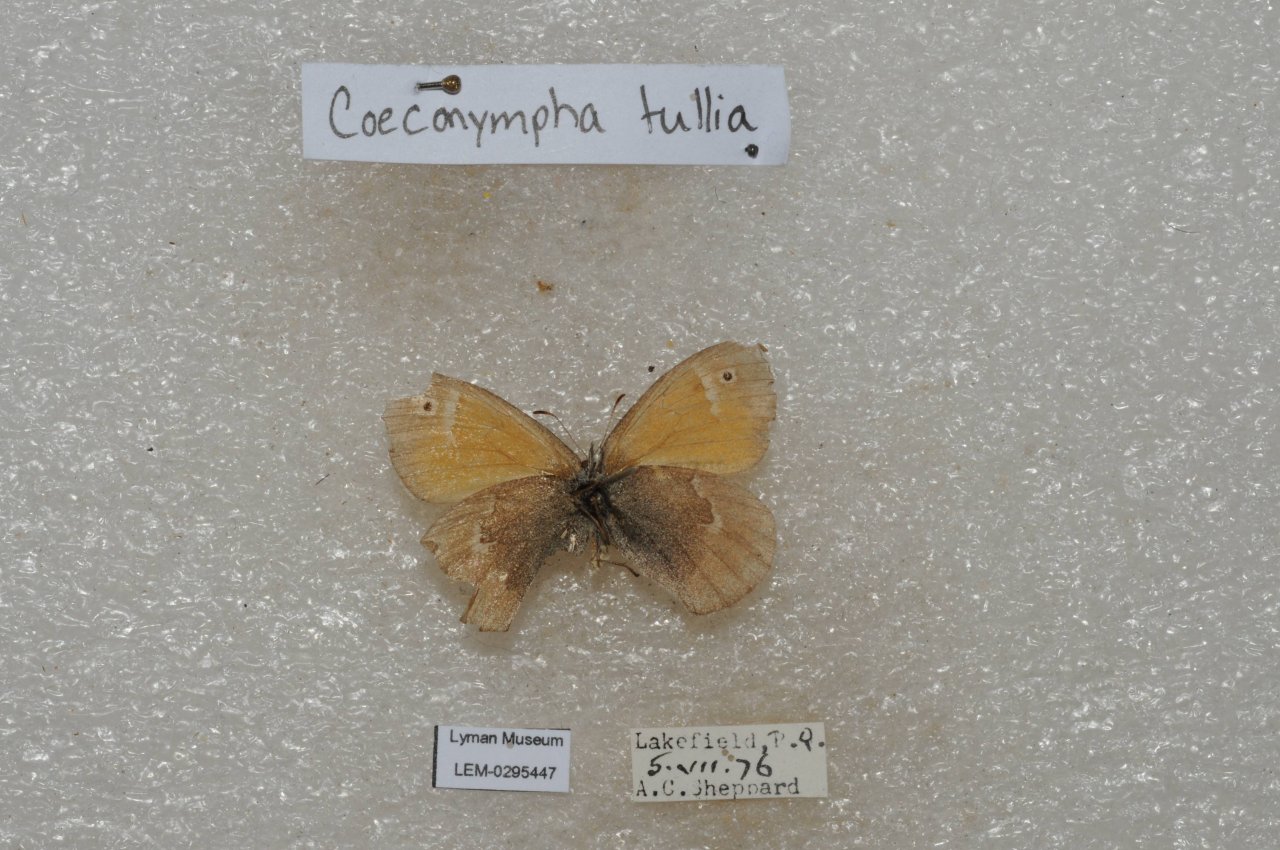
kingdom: Animalia
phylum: Arthropoda
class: Insecta
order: Lepidoptera
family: Nymphalidae
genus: Coenonympha
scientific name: Coenonympha tullia
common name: Large Heath
